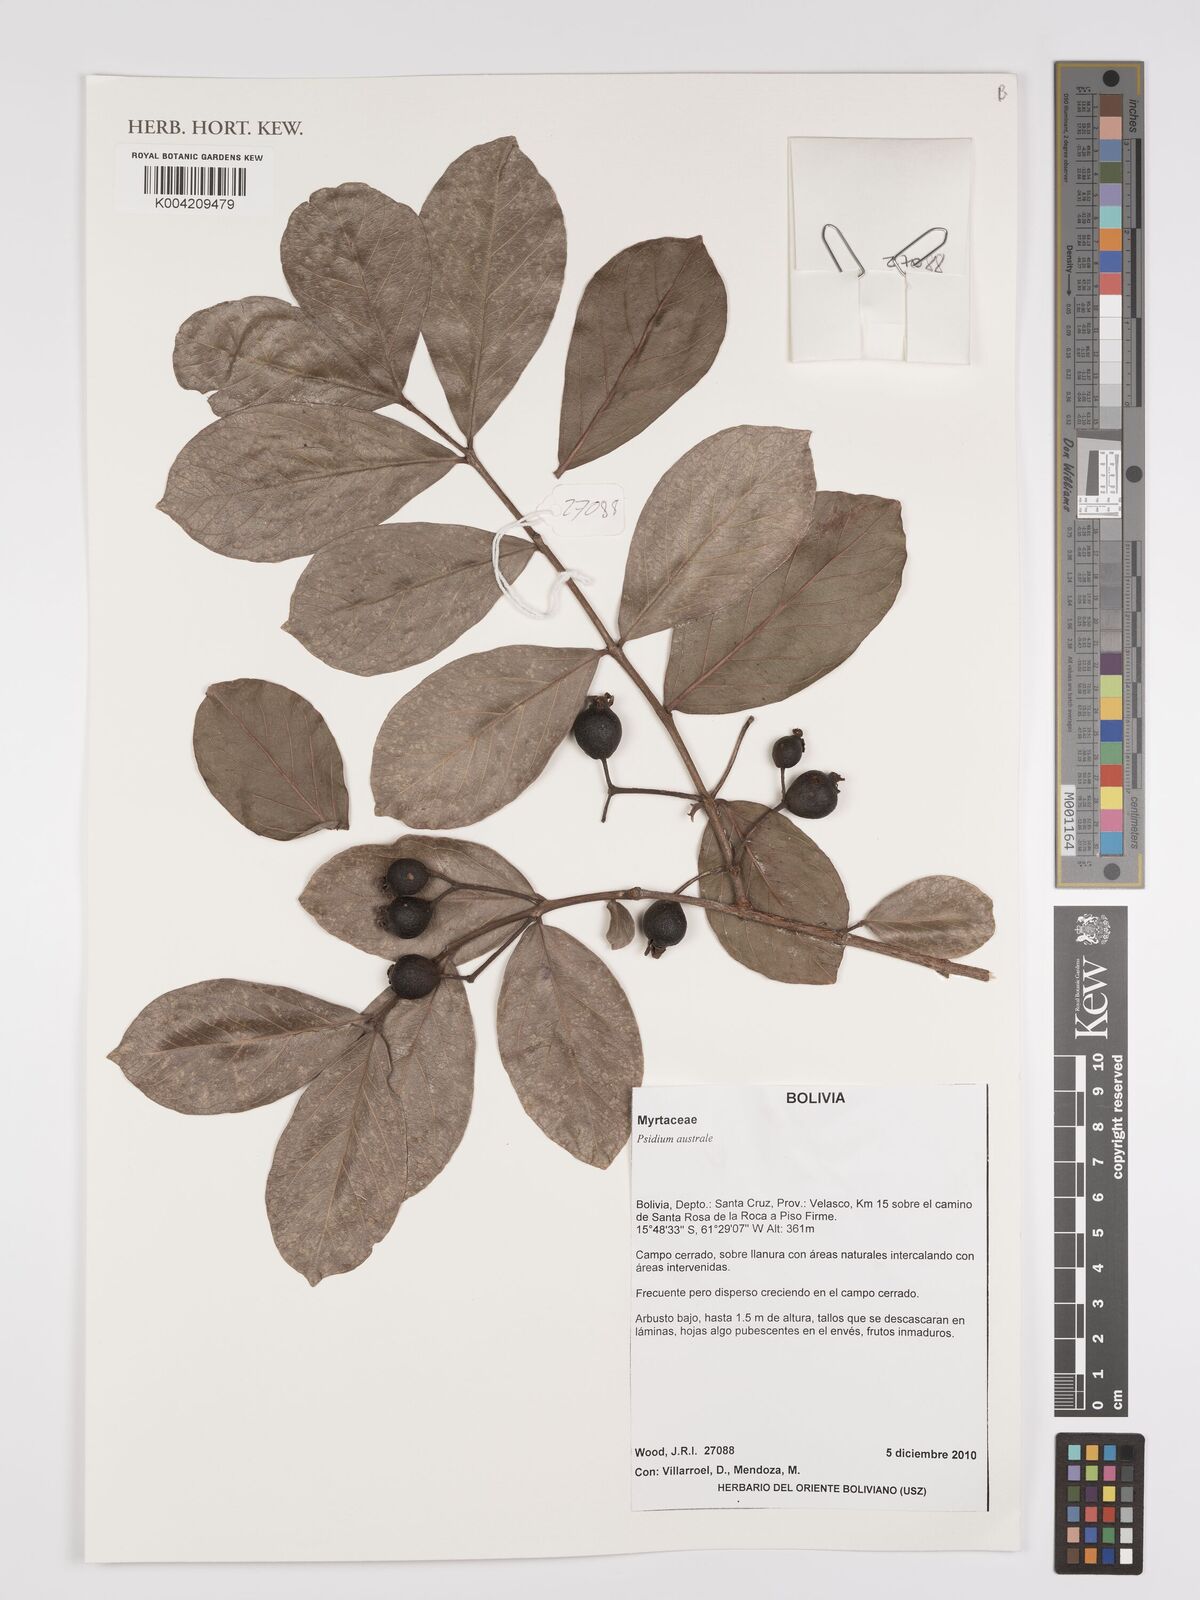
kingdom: Plantae
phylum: Tracheophyta
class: Magnoliopsida
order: Myrtales
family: Myrtaceae
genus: Psidium
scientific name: Psidium australe
